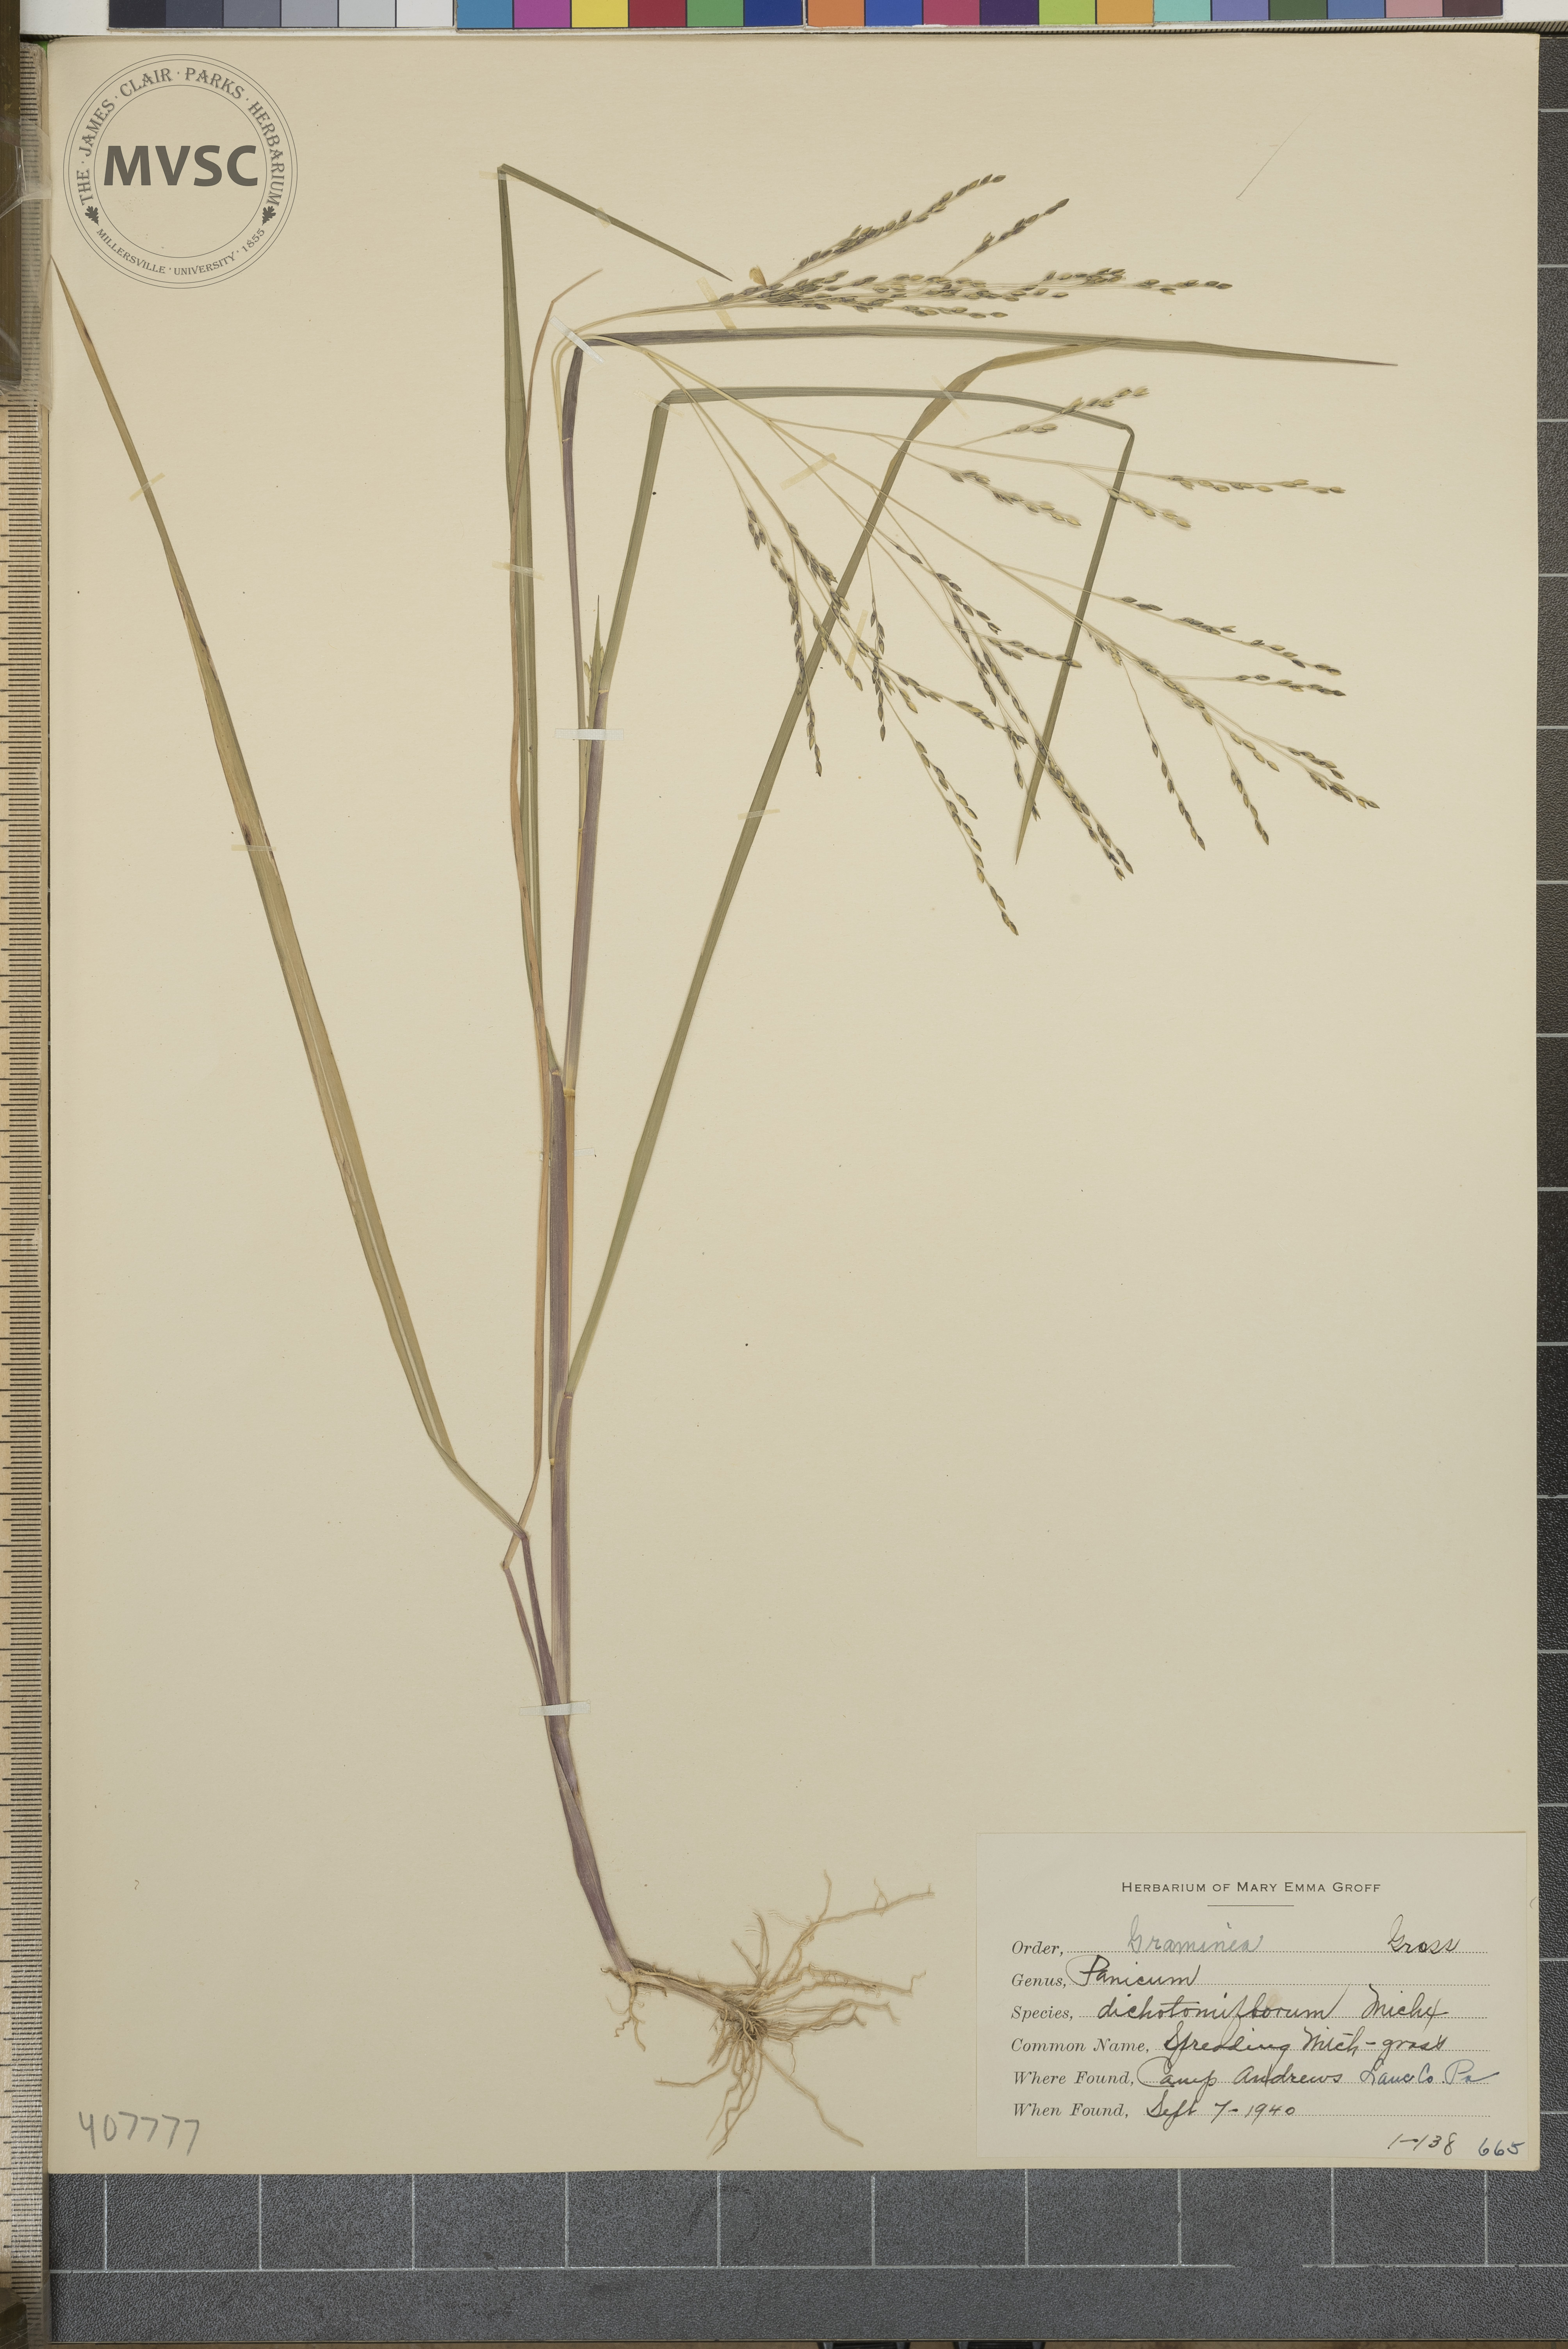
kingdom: Plantae
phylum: Tracheophyta
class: Liliopsida
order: Poales
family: Poaceae
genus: Panicum
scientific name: Panicum dichotomiflorum
